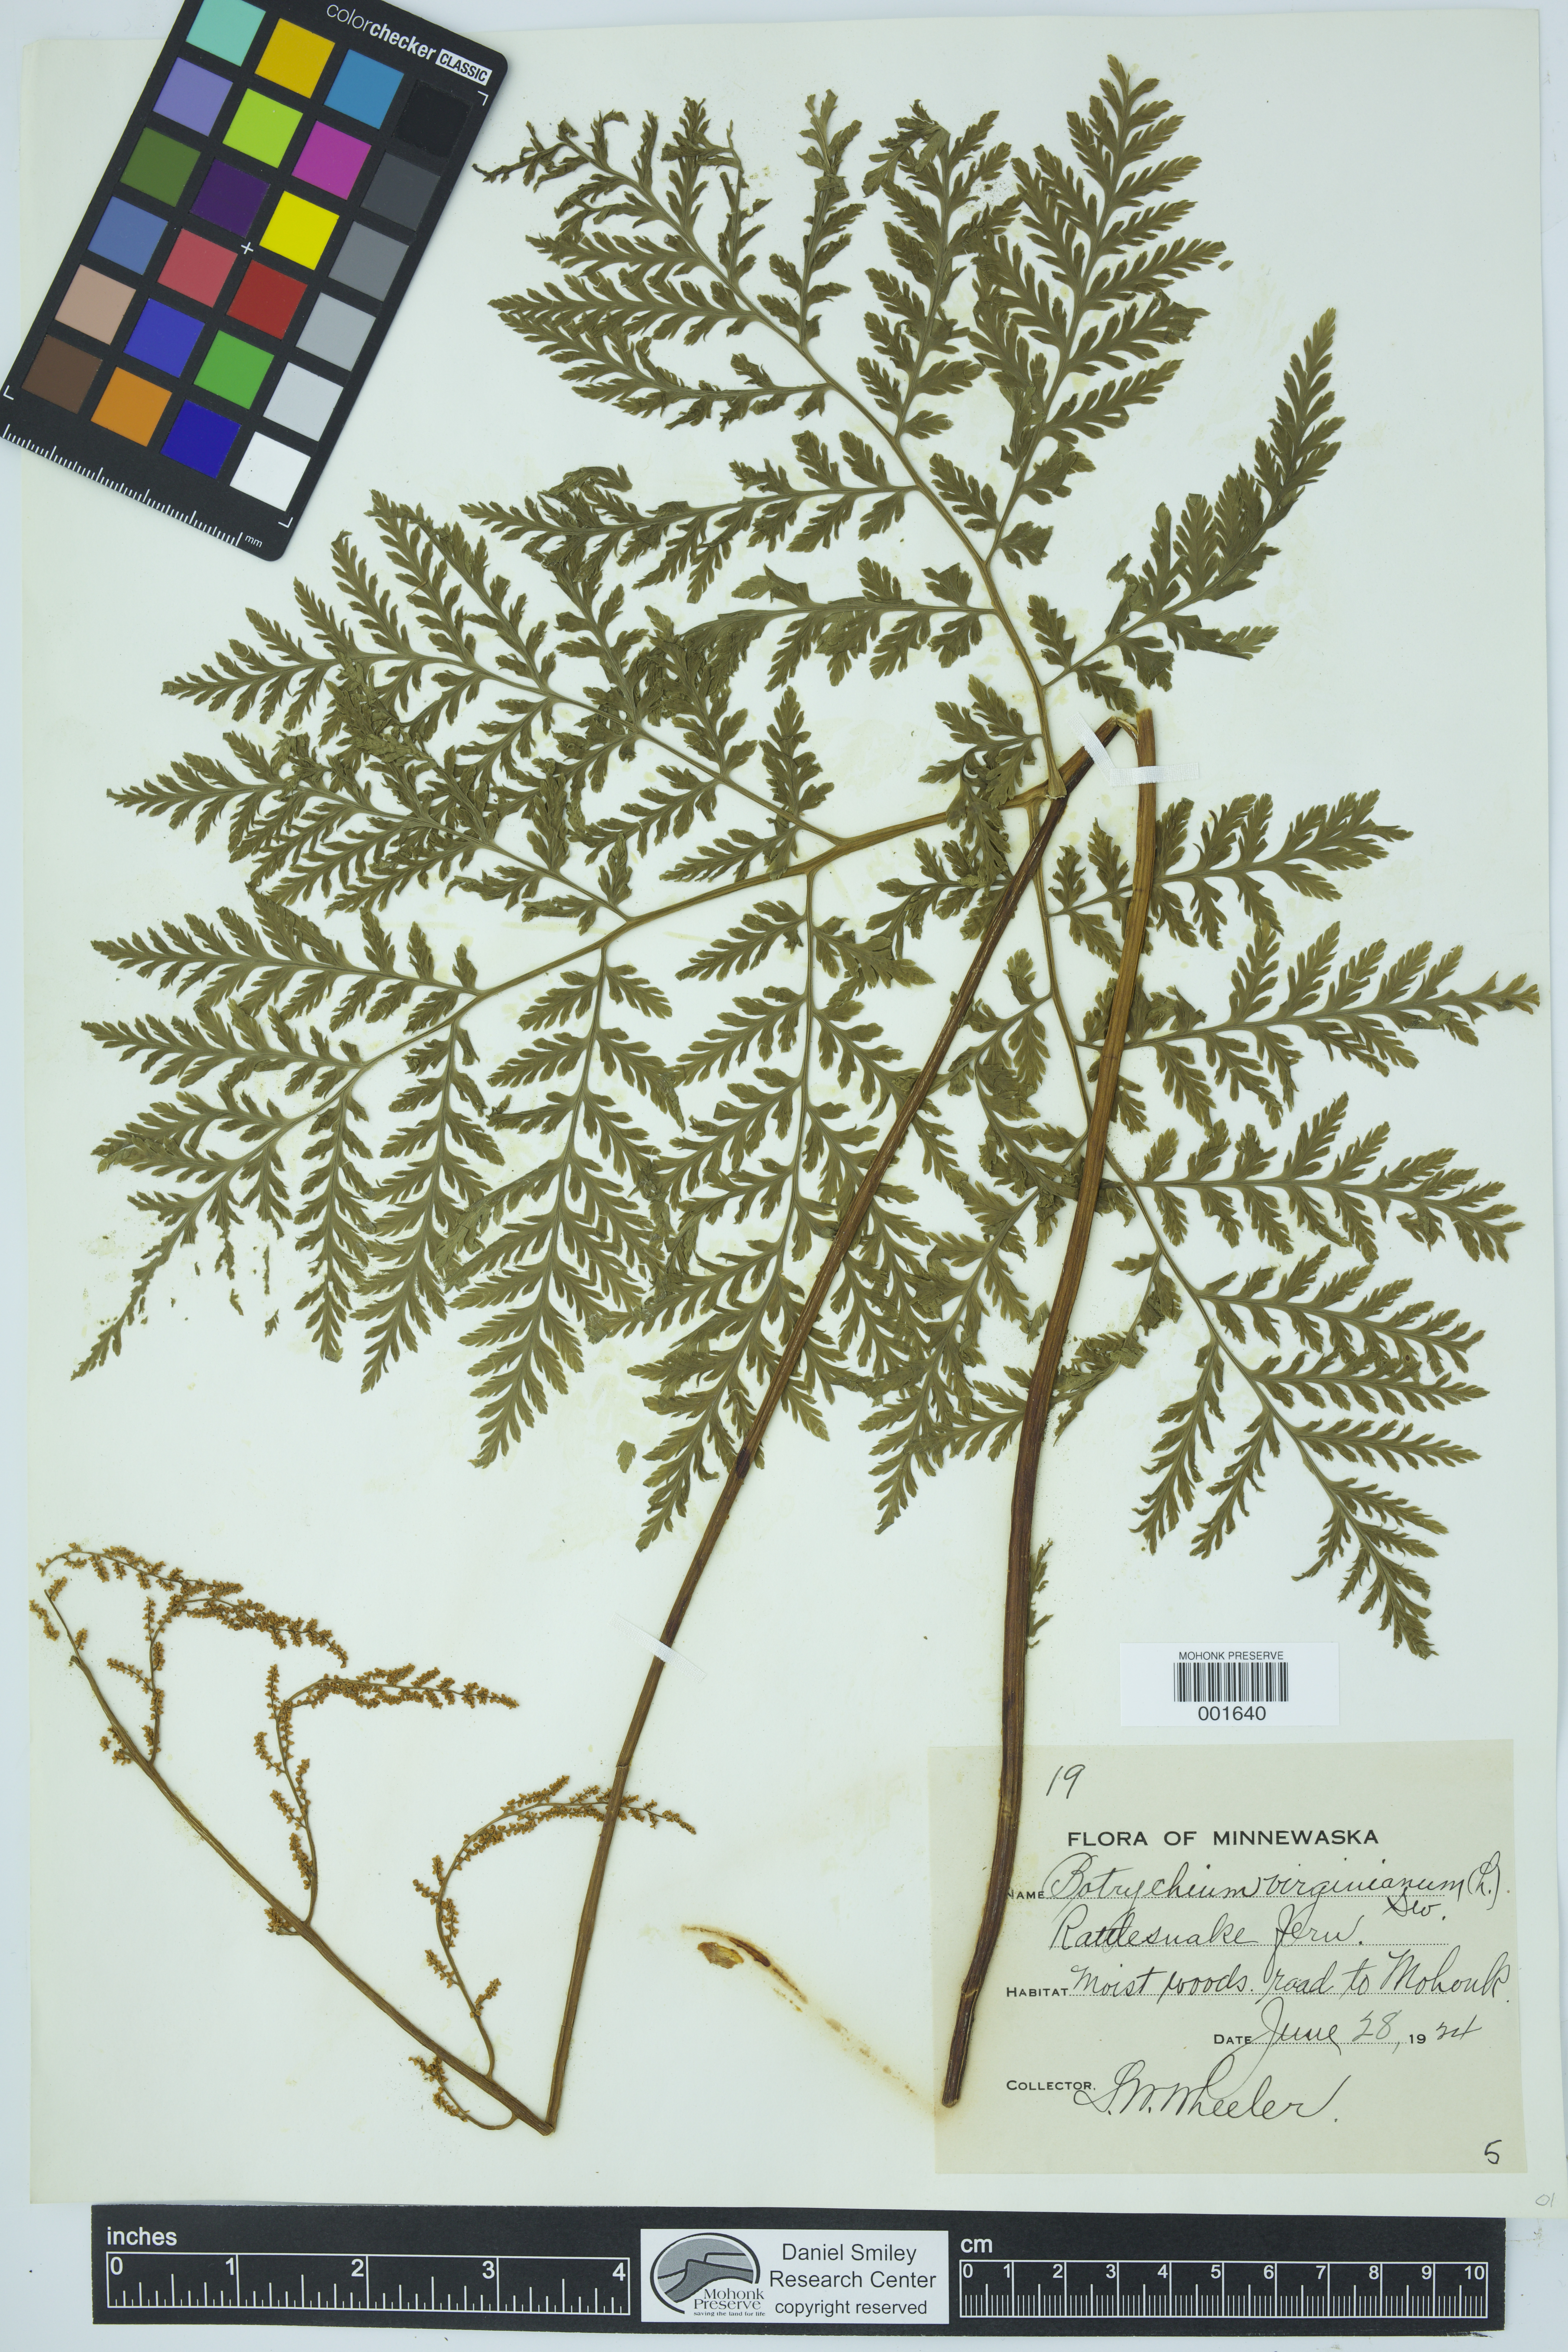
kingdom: Plantae
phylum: Tracheophyta
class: Polypodiopsida
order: Ophioglossales
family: Ophioglossaceae
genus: Botrypus
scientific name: Botrypus virginianus
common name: Common grapefern
